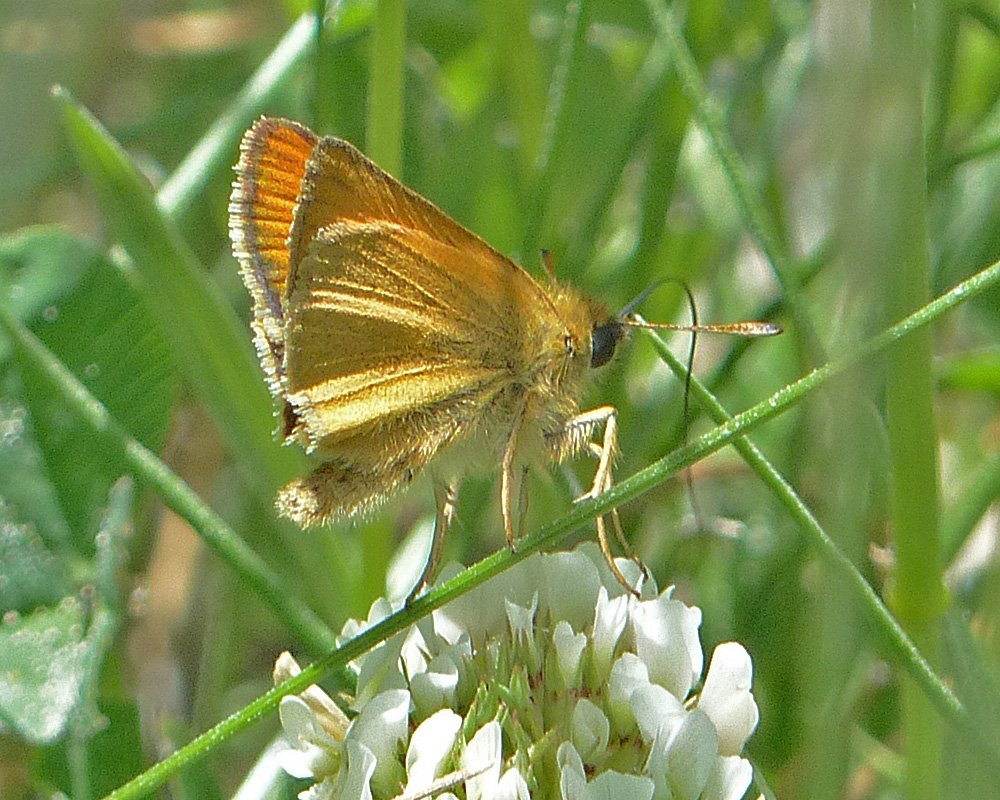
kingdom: Animalia
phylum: Arthropoda
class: Insecta
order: Lepidoptera
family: Hesperiidae
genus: Thymelicus
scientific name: Thymelicus lineola
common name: European Skipper
